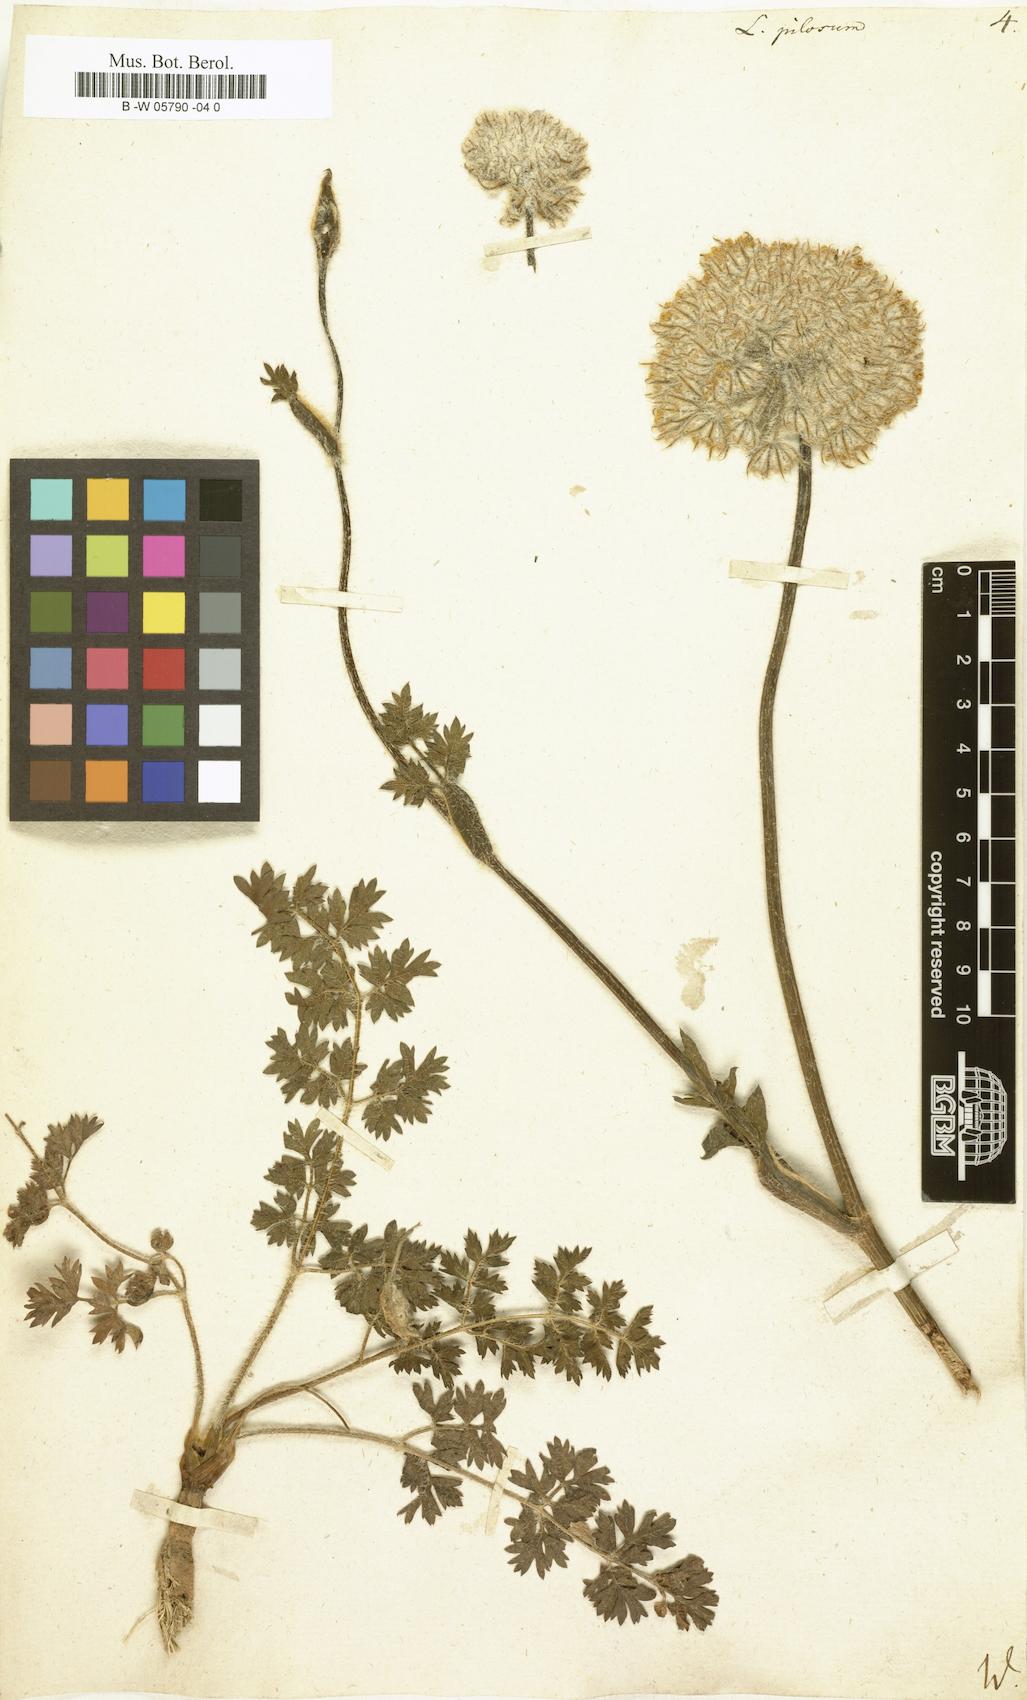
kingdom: Plantae
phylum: Tracheophyta
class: Magnoliopsida
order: Apiales
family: Apiaceae
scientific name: Apiaceae
